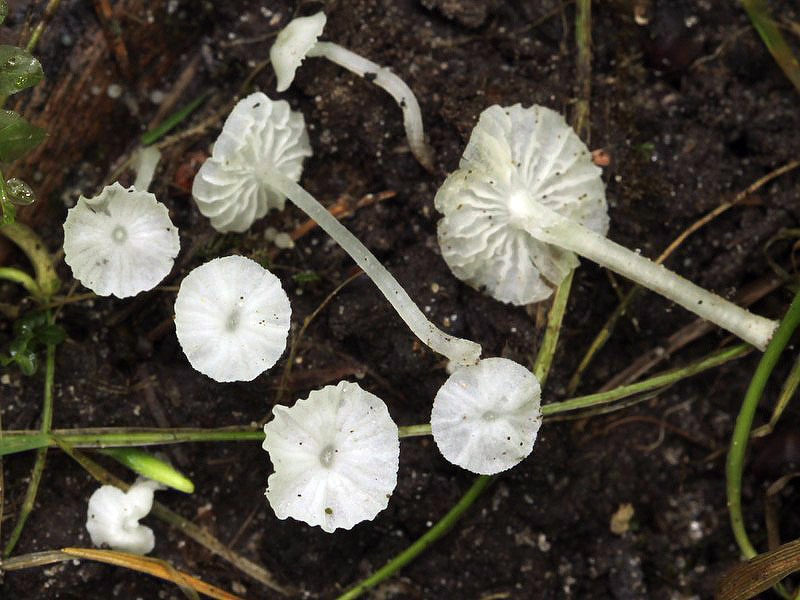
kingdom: Fungi
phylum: Basidiomycota
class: Agaricomycetes
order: Agaricales
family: Tricholomataceae
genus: Delicatula
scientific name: Delicatula integrella
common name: slørhuesvamp
